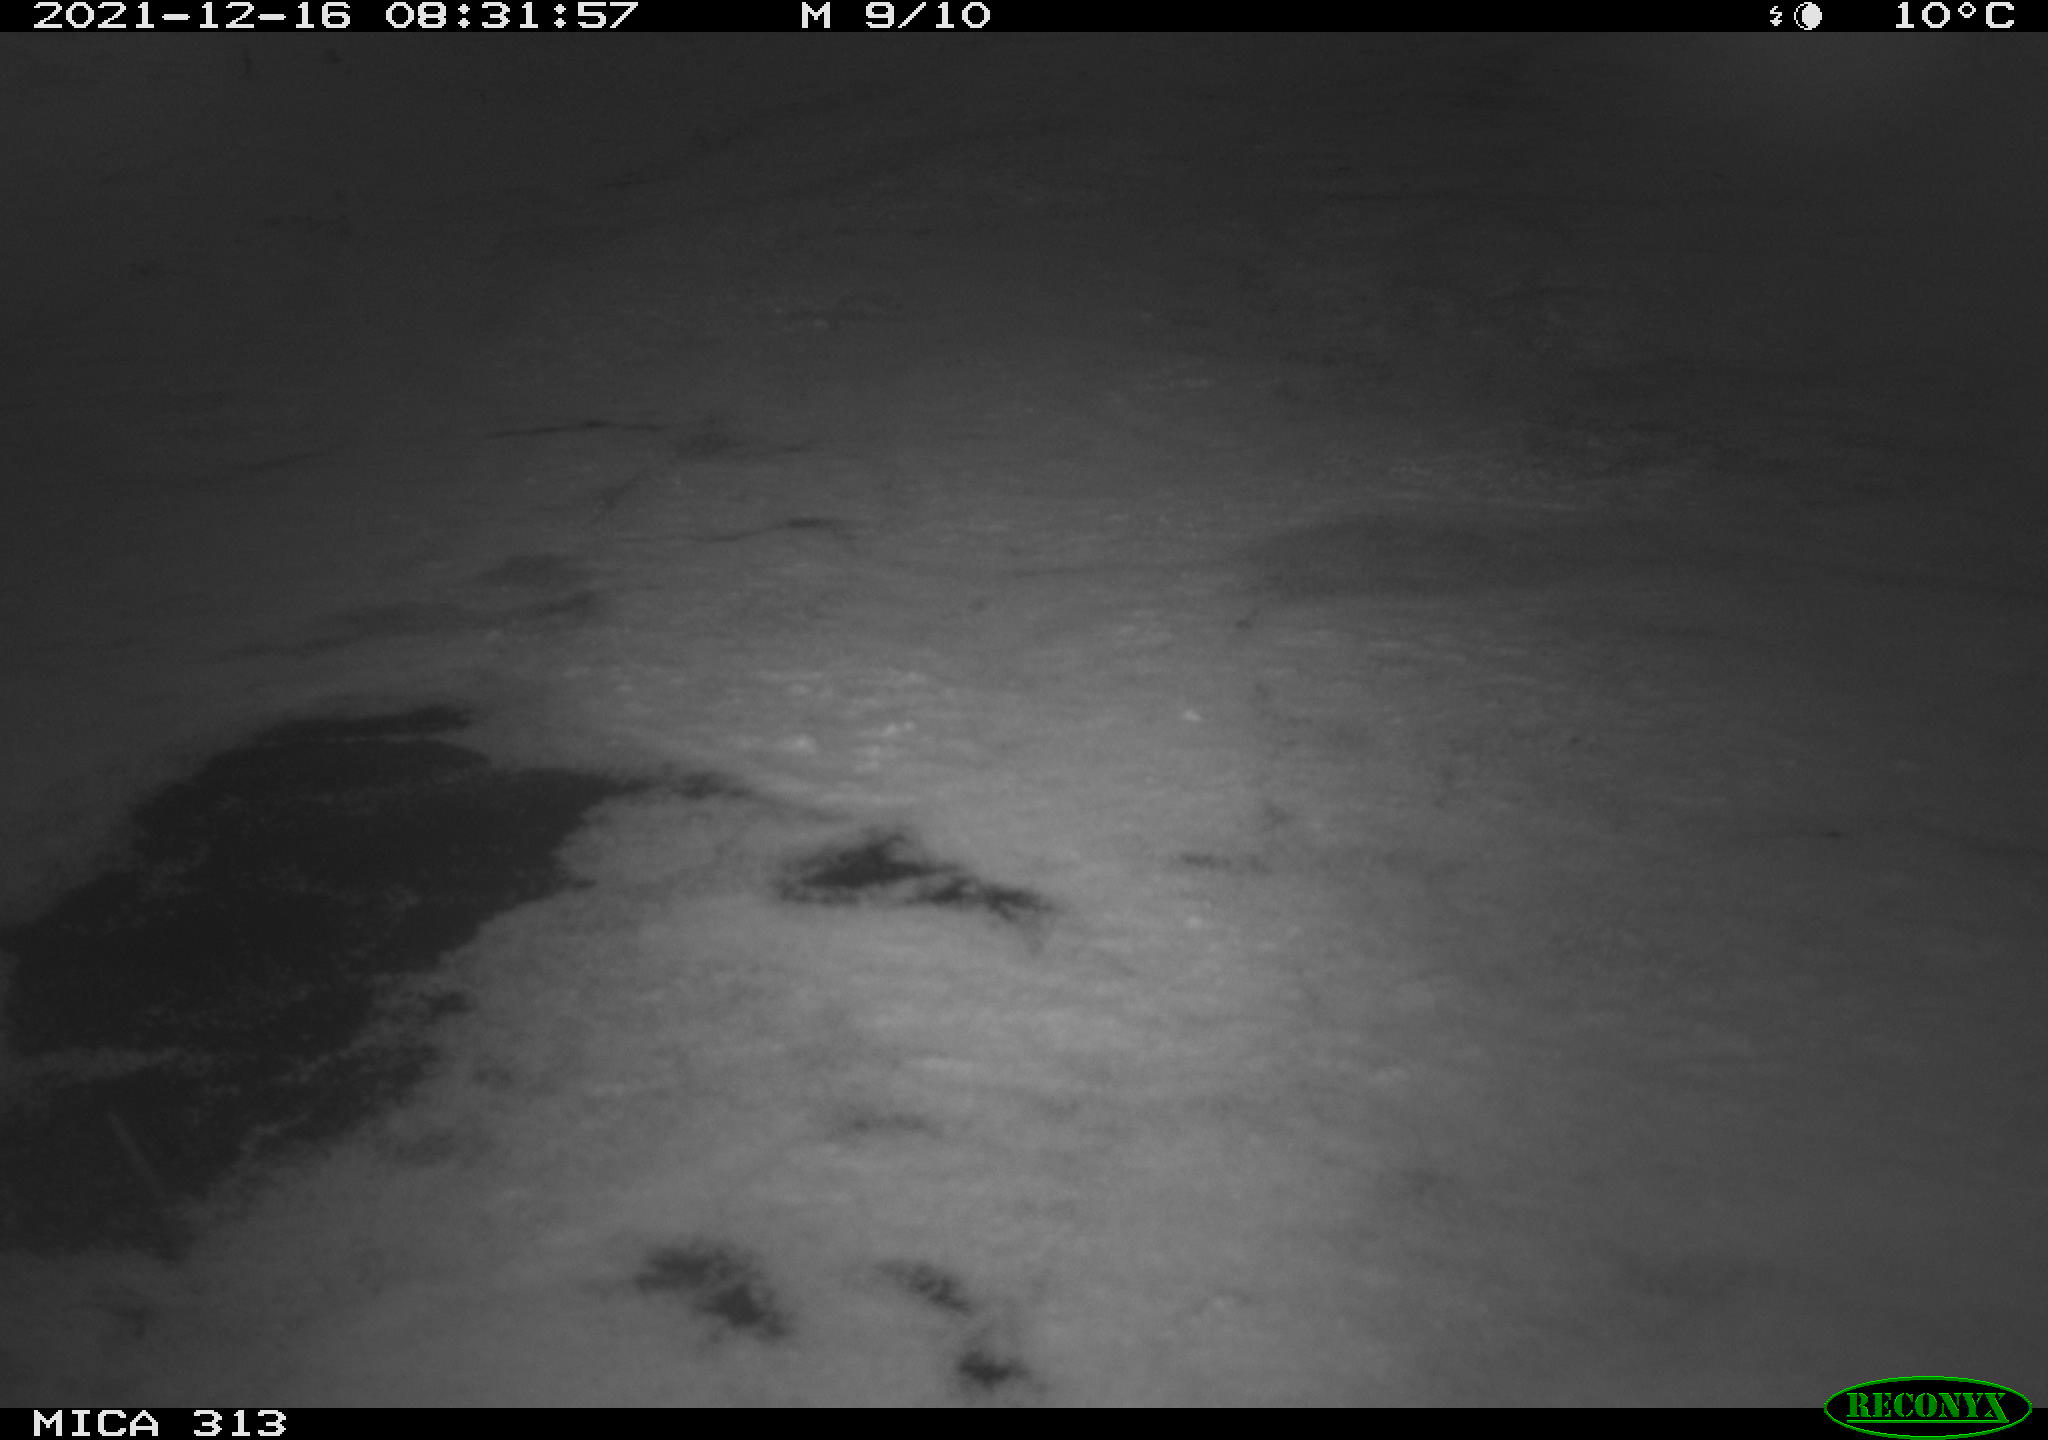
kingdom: Animalia
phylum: Chordata
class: Aves
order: Gruiformes
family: Rallidae
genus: Gallinula
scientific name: Gallinula chloropus
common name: Common moorhen
